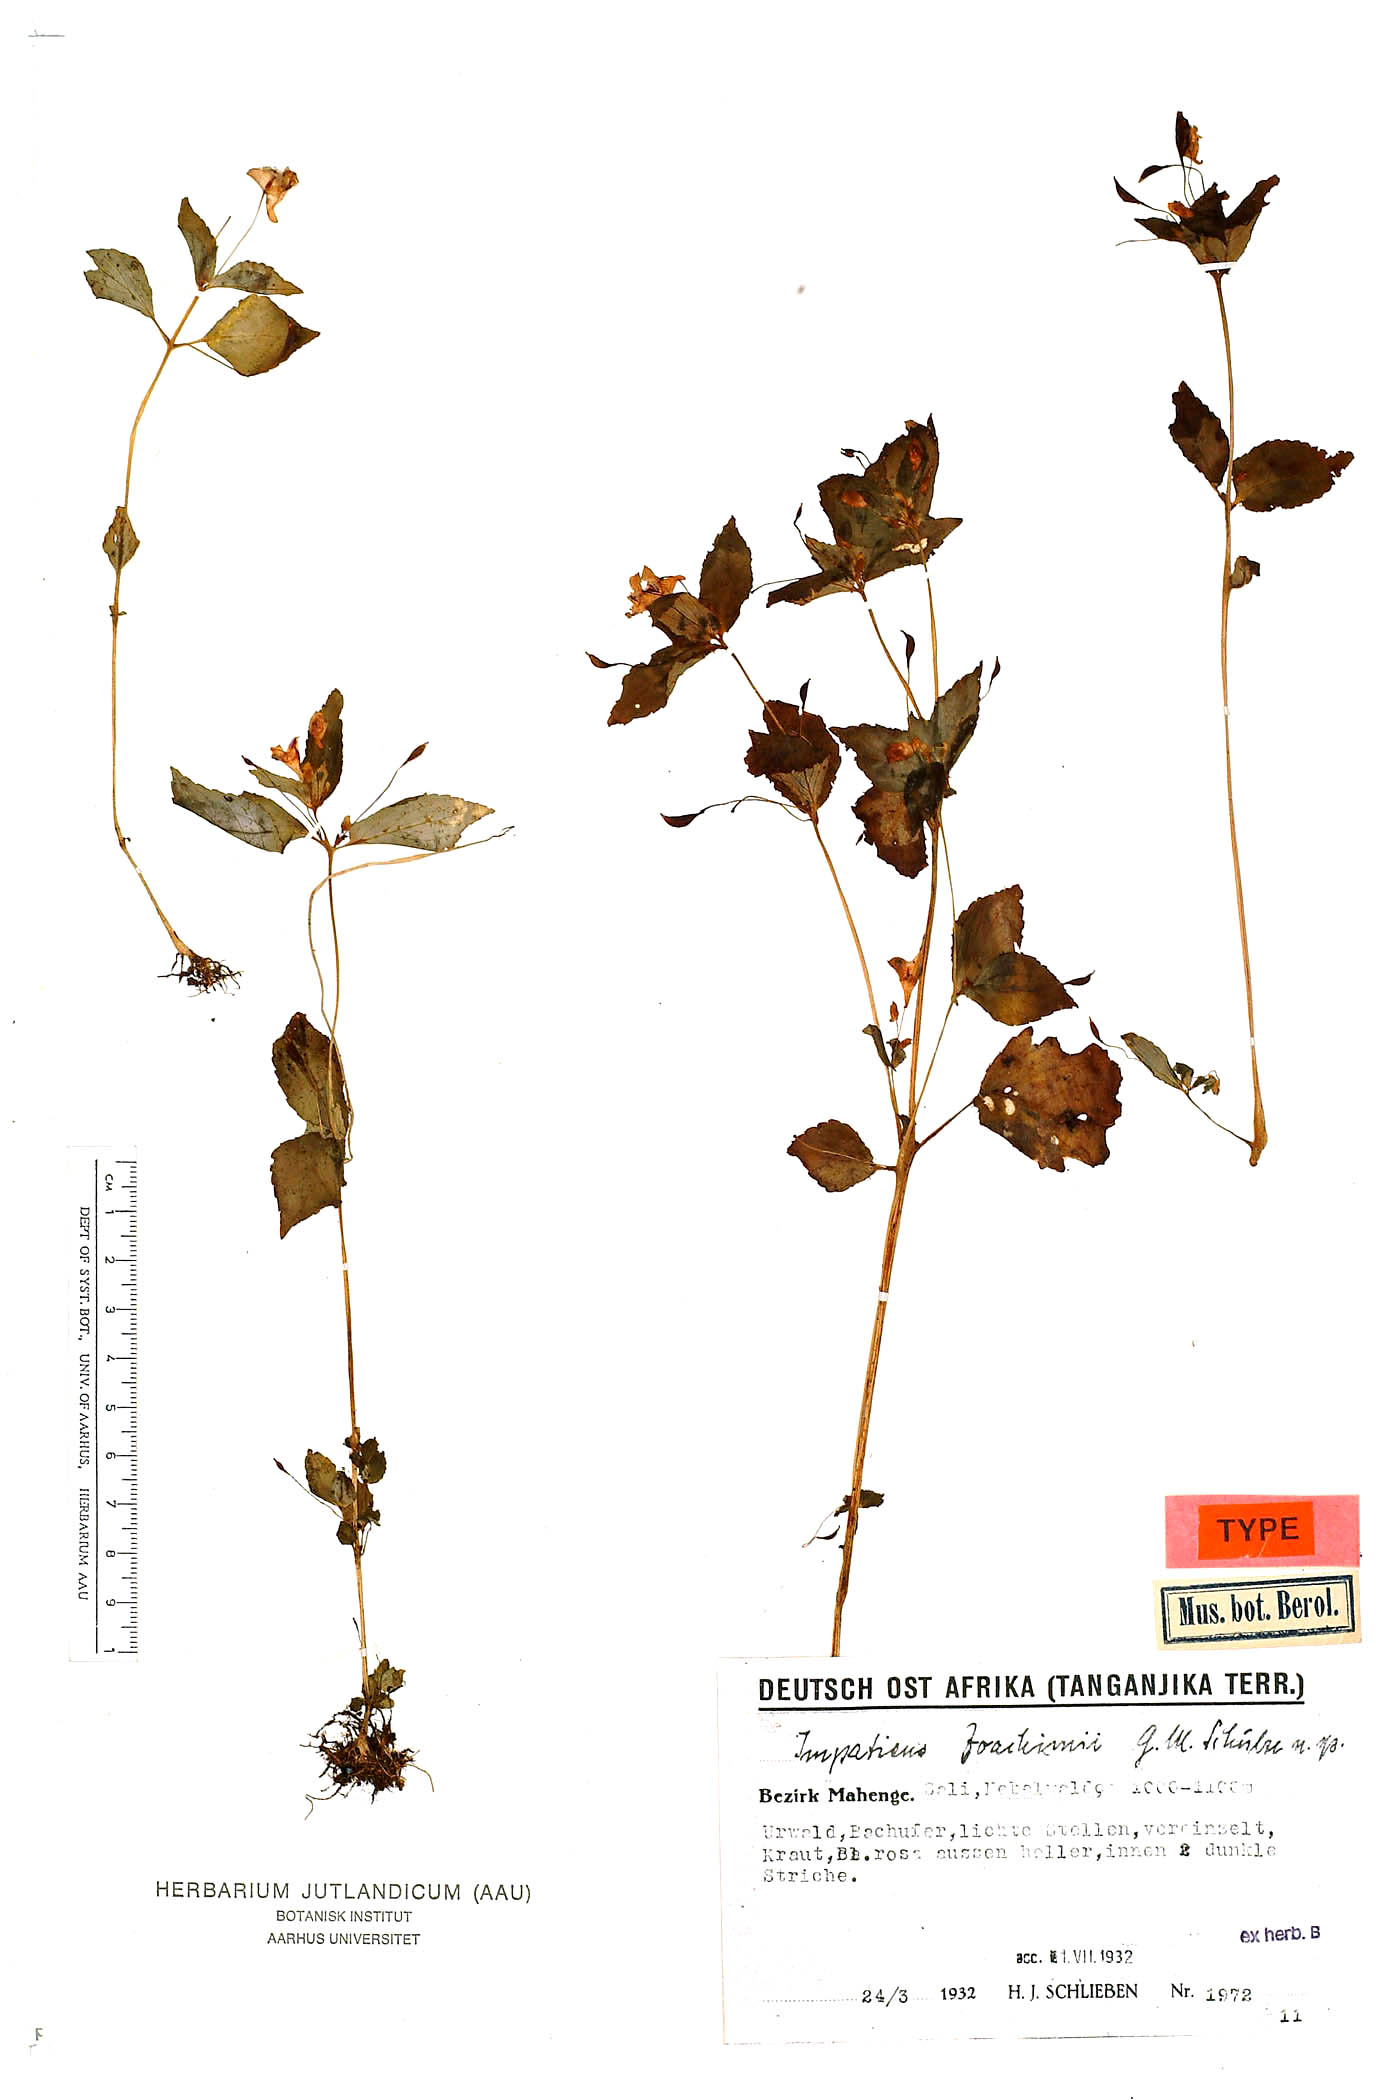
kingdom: Plantae
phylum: Tracheophyta
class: Magnoliopsida
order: Ericales
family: Balsaminaceae
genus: Impatiens
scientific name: Impatiens joachimii
